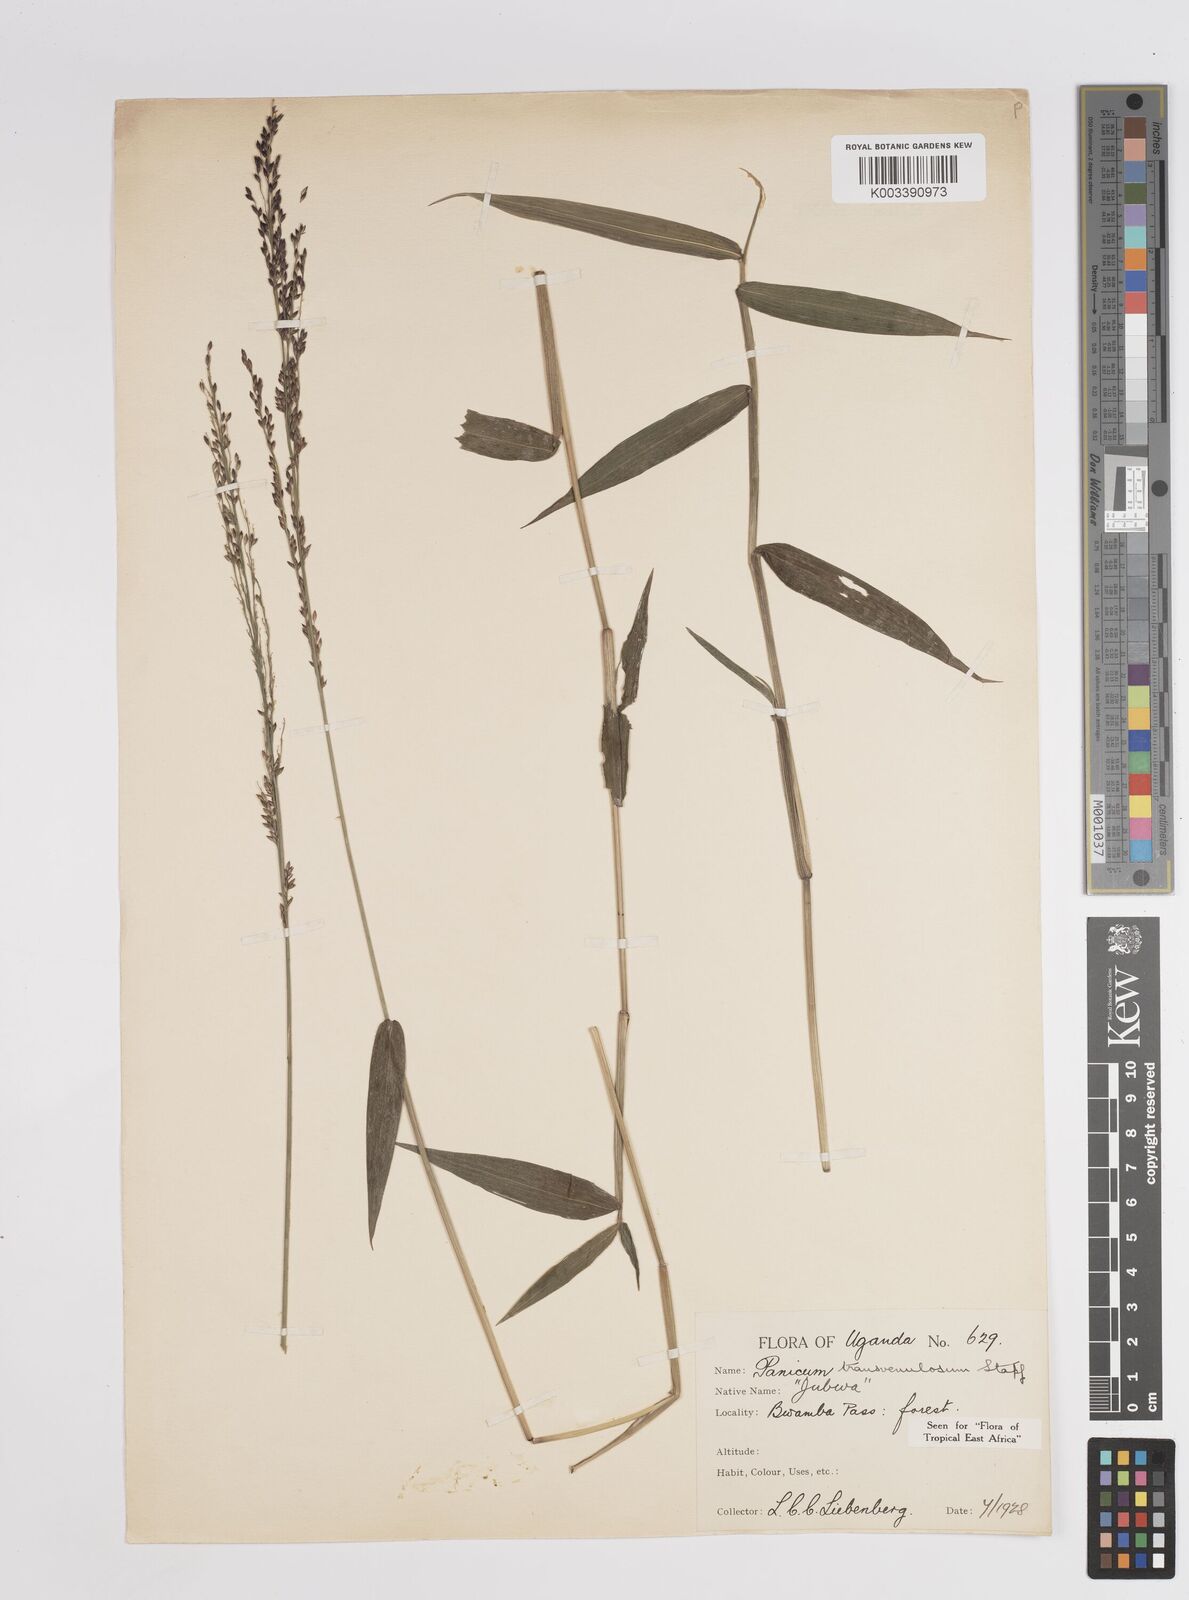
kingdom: Plantae
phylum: Tracheophyta
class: Liliopsida
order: Poales
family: Poaceae
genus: Panicum
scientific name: Panicum
